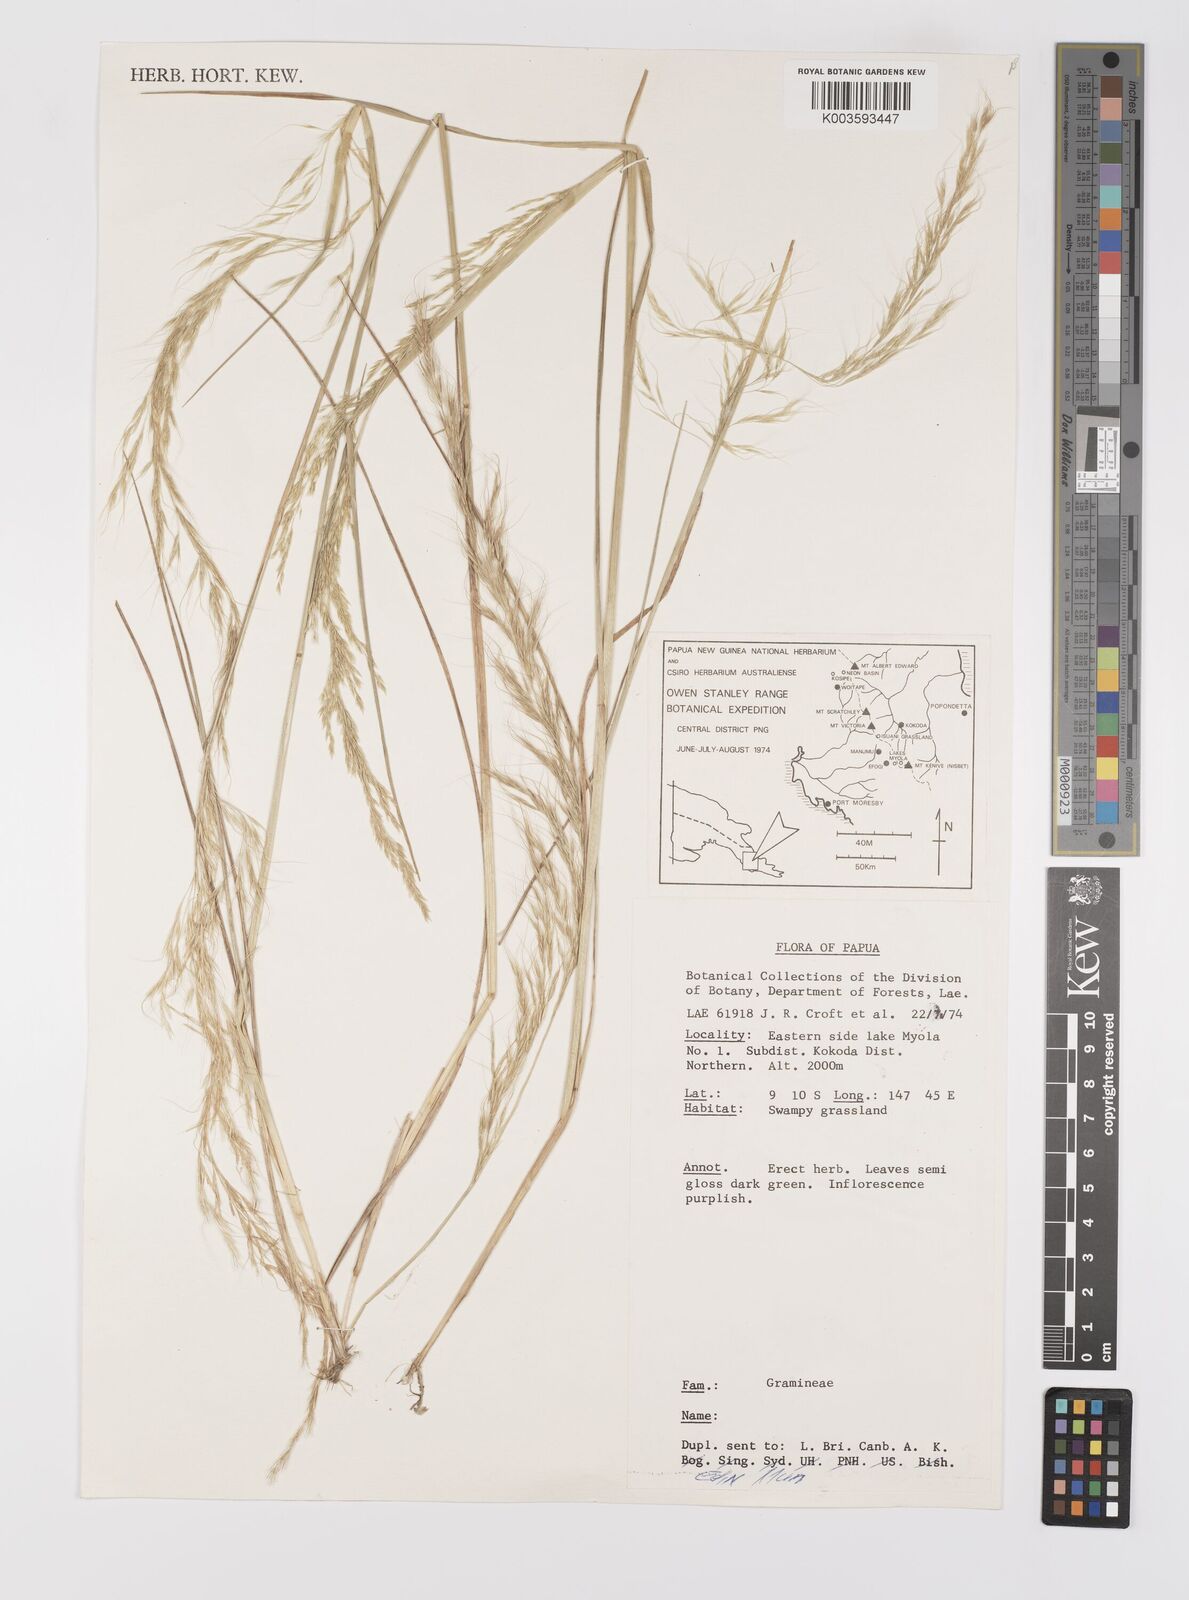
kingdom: Plantae
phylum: Tracheophyta
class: Liliopsida
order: Poales
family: Poaceae
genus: Dichelachne
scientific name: Dichelachne rara
